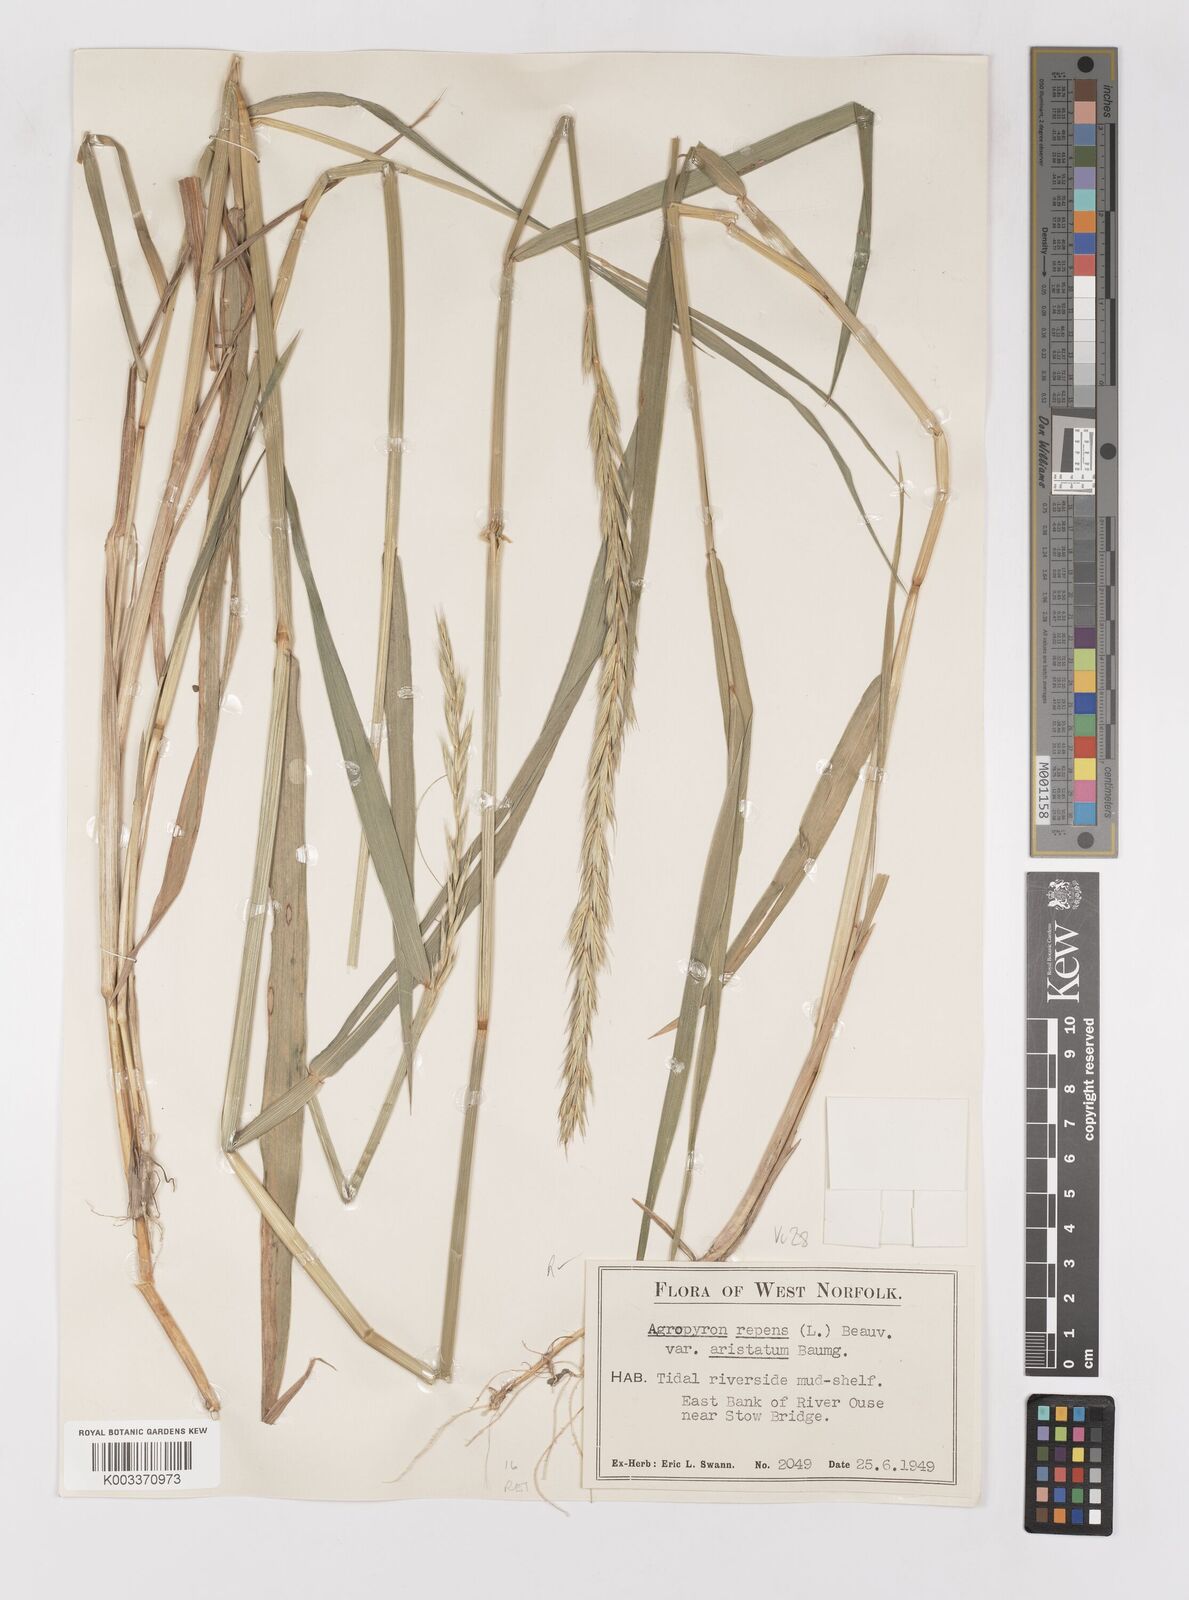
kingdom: Plantae
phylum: Tracheophyta
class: Liliopsida
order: Poales
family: Poaceae
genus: Elymus
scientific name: Elymus repens
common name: Quackgrass
